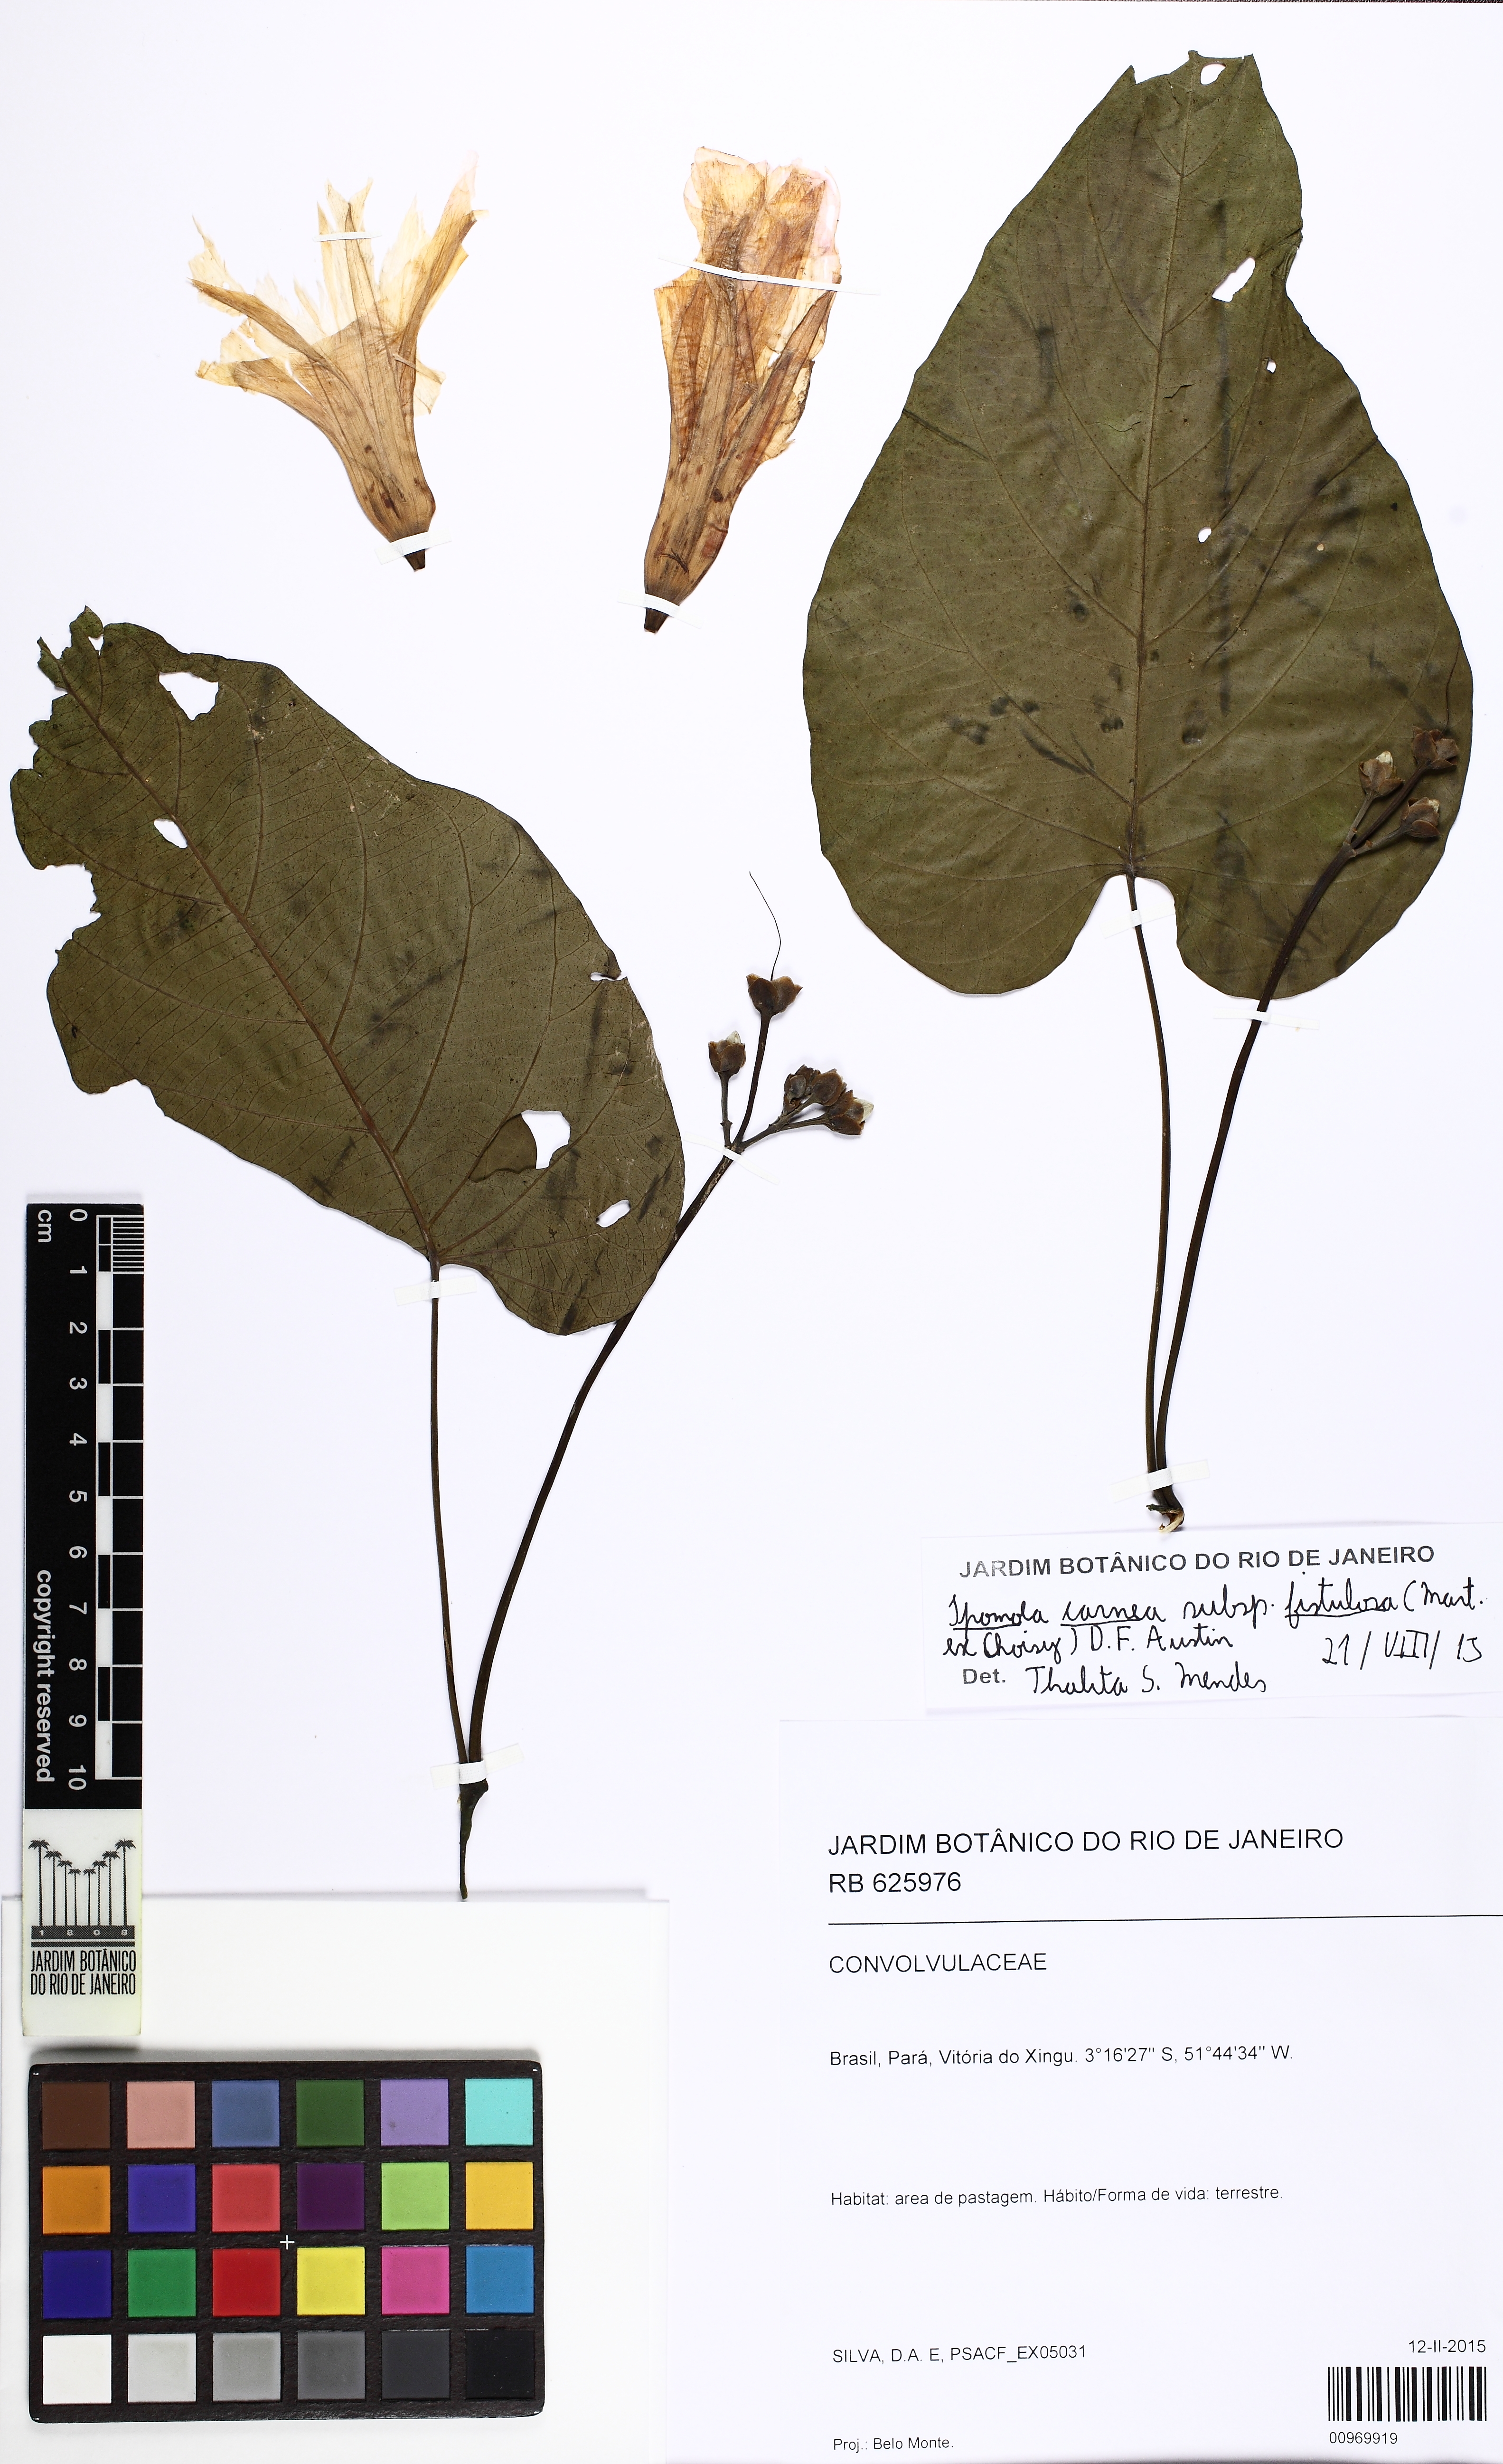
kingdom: Plantae
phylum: Tracheophyta
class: Magnoliopsida
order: Solanales
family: Convolvulaceae
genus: Ipomoea
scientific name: Ipomoea carnea
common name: Morning-glory
